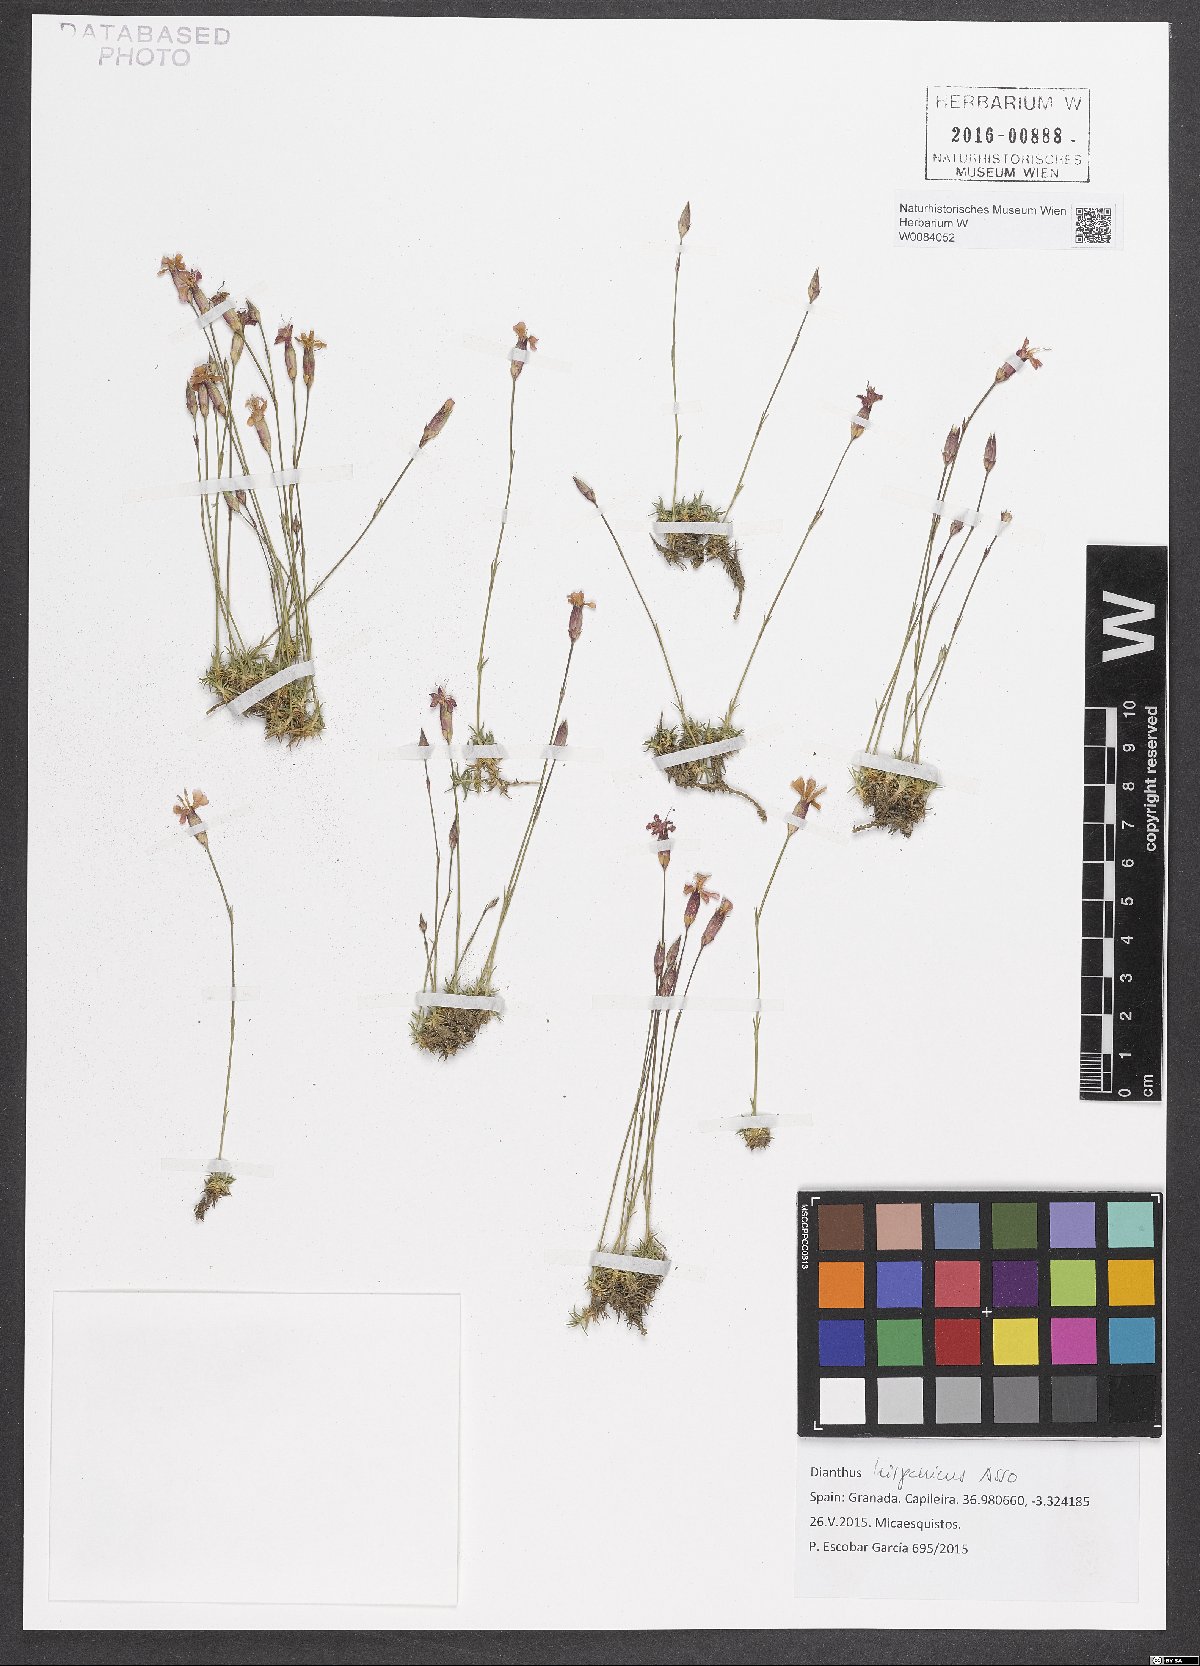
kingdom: Plantae
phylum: Tracheophyta
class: Magnoliopsida
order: Caryophyllales
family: Caryophyllaceae
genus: Dianthus
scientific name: Dianthus pungens
